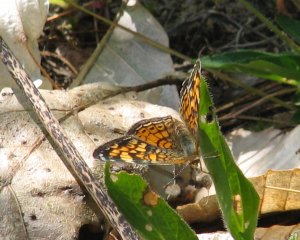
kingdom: Animalia
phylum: Arthropoda
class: Insecta
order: Lepidoptera
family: Nymphalidae
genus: Phyciodes
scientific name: Phyciodes tharos
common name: Pearl Crescent
